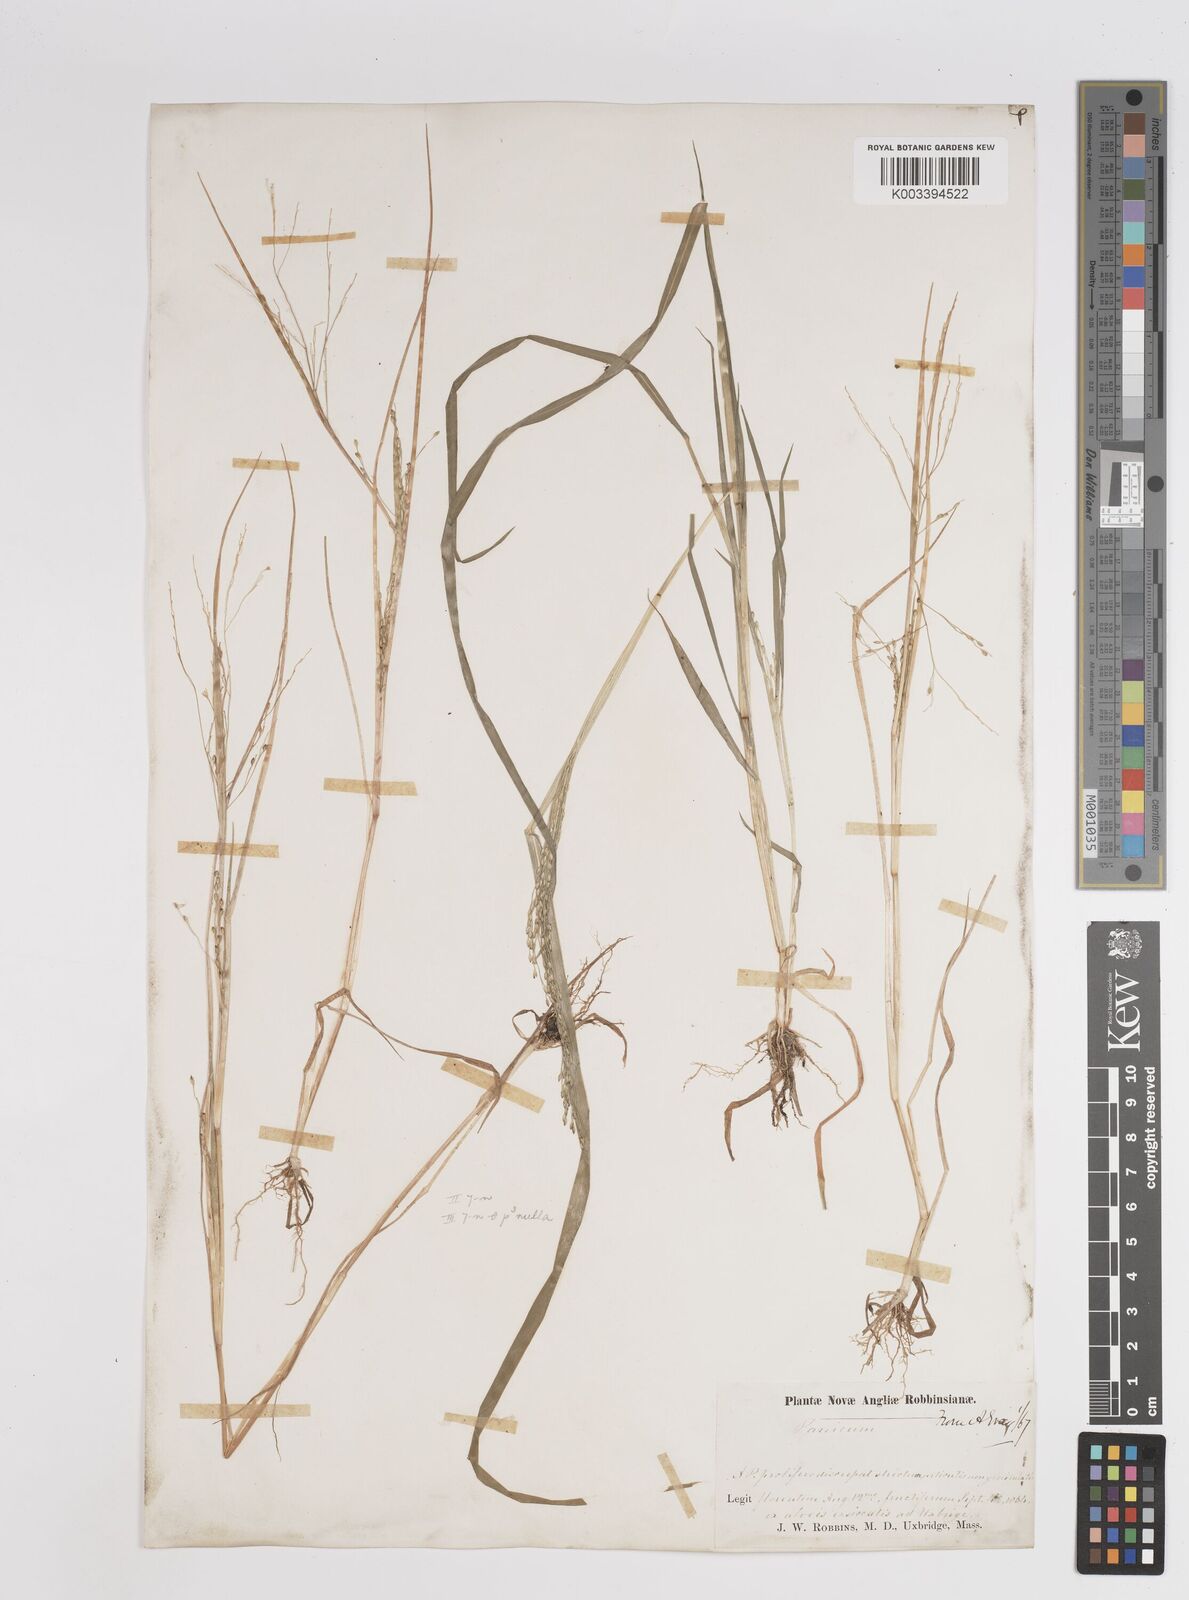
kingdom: Plantae
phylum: Tracheophyta
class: Liliopsida
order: Poales
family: Poaceae
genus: Panicum
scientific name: Panicum dichotomiflorum
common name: Autumn millet
